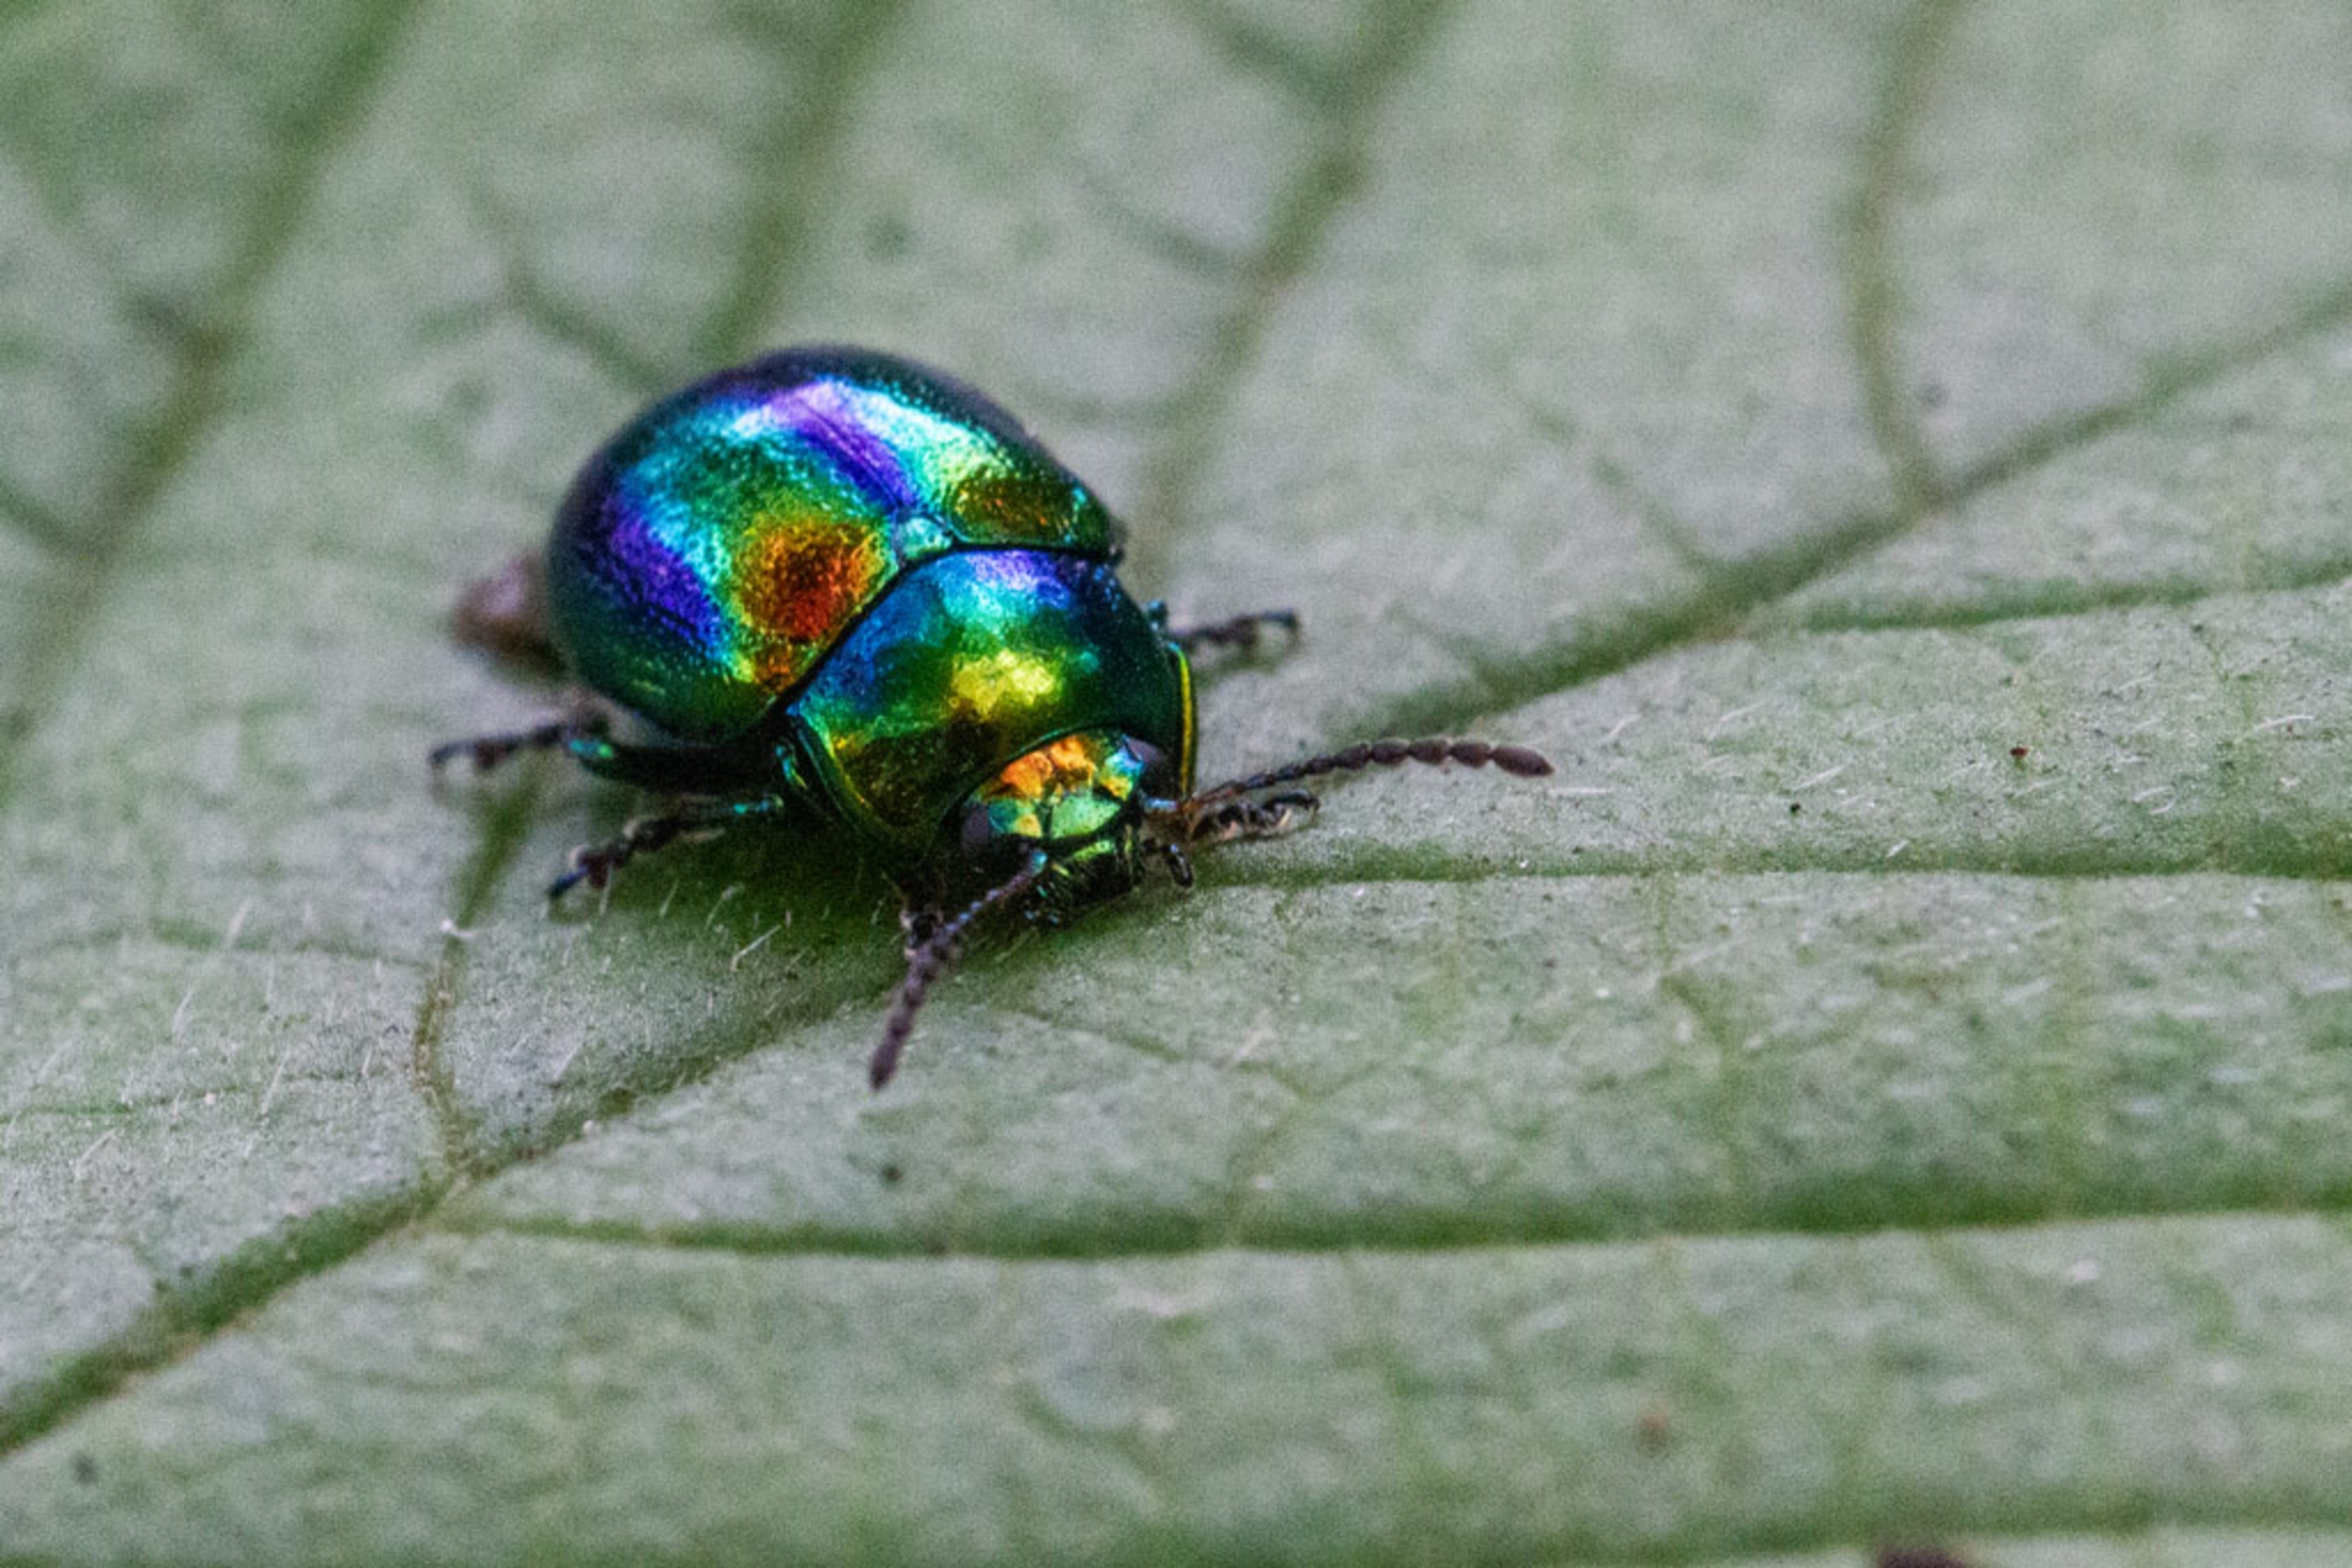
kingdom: Animalia
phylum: Arthropoda
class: Insecta
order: Coleoptera
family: Chrysomelidae
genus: Chrysolina
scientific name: Chrysolina fastuosa
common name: Tvetandbladbille
